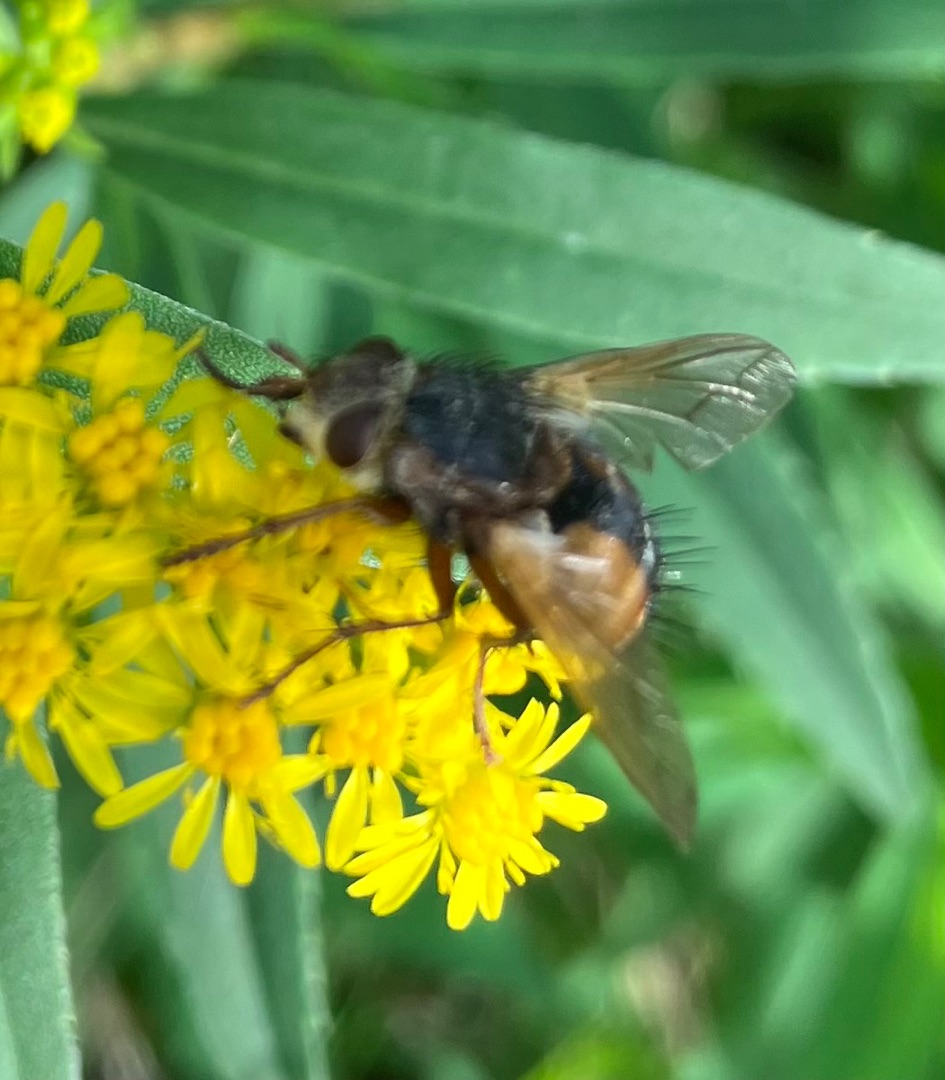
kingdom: Animalia
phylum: Arthropoda
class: Insecta
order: Diptera
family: Tachinidae
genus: Tachina
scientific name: Tachina fera
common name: Mellemfluen oskar
